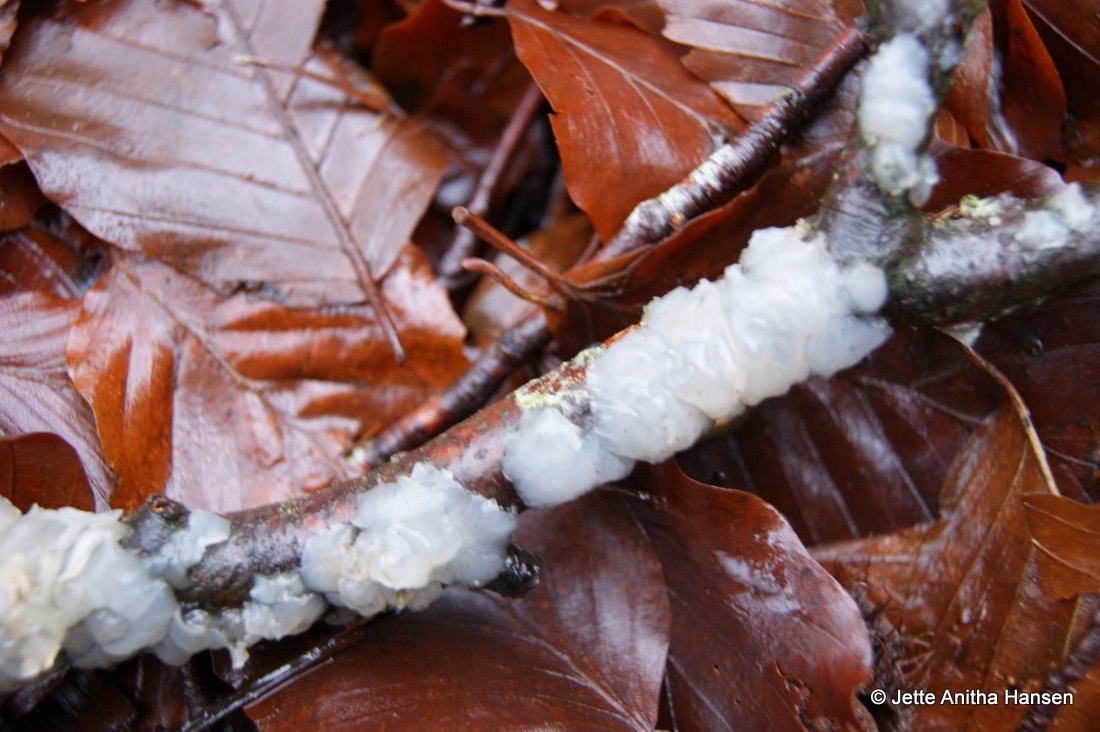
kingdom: Fungi
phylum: Basidiomycota
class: Agaricomycetes
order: Auriculariales
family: Auriculariaceae
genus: Exidia
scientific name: Exidia thuretiana
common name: hvidlig bævretop
